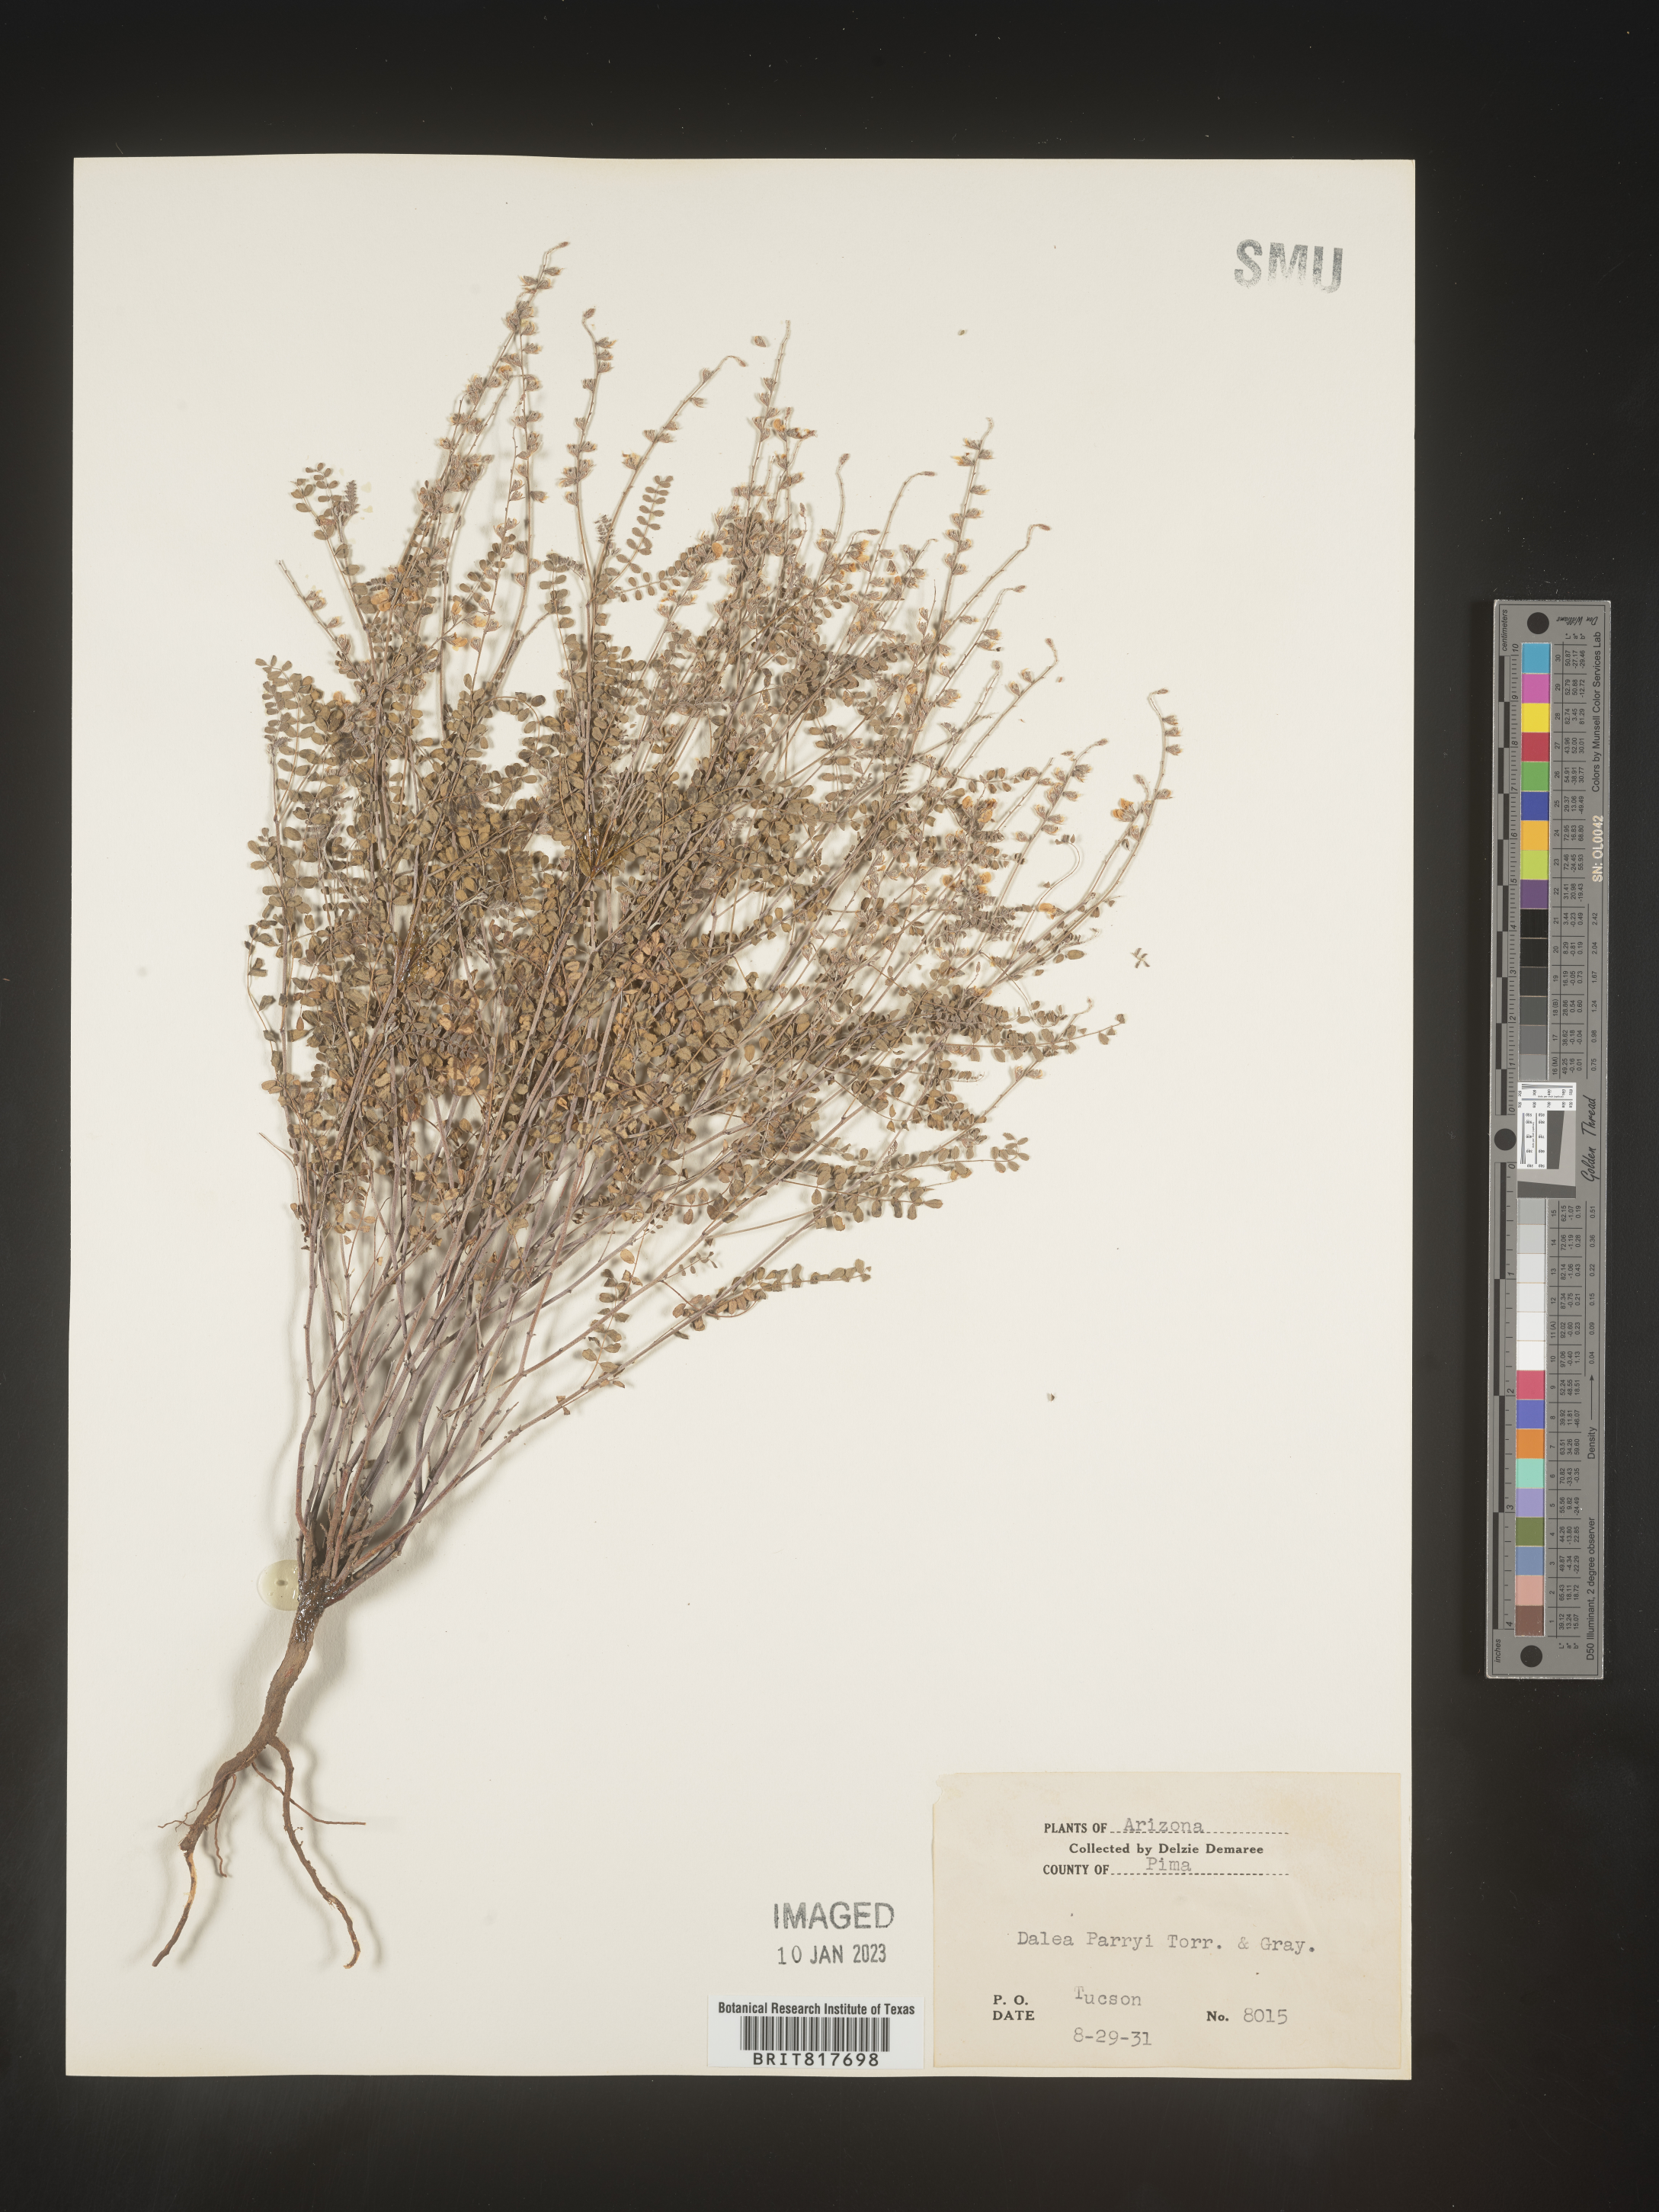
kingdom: Plantae
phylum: Tracheophyta
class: Magnoliopsida
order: Fabales
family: Fabaceae
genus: Marina
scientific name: Marina parryi
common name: Parry's marina
